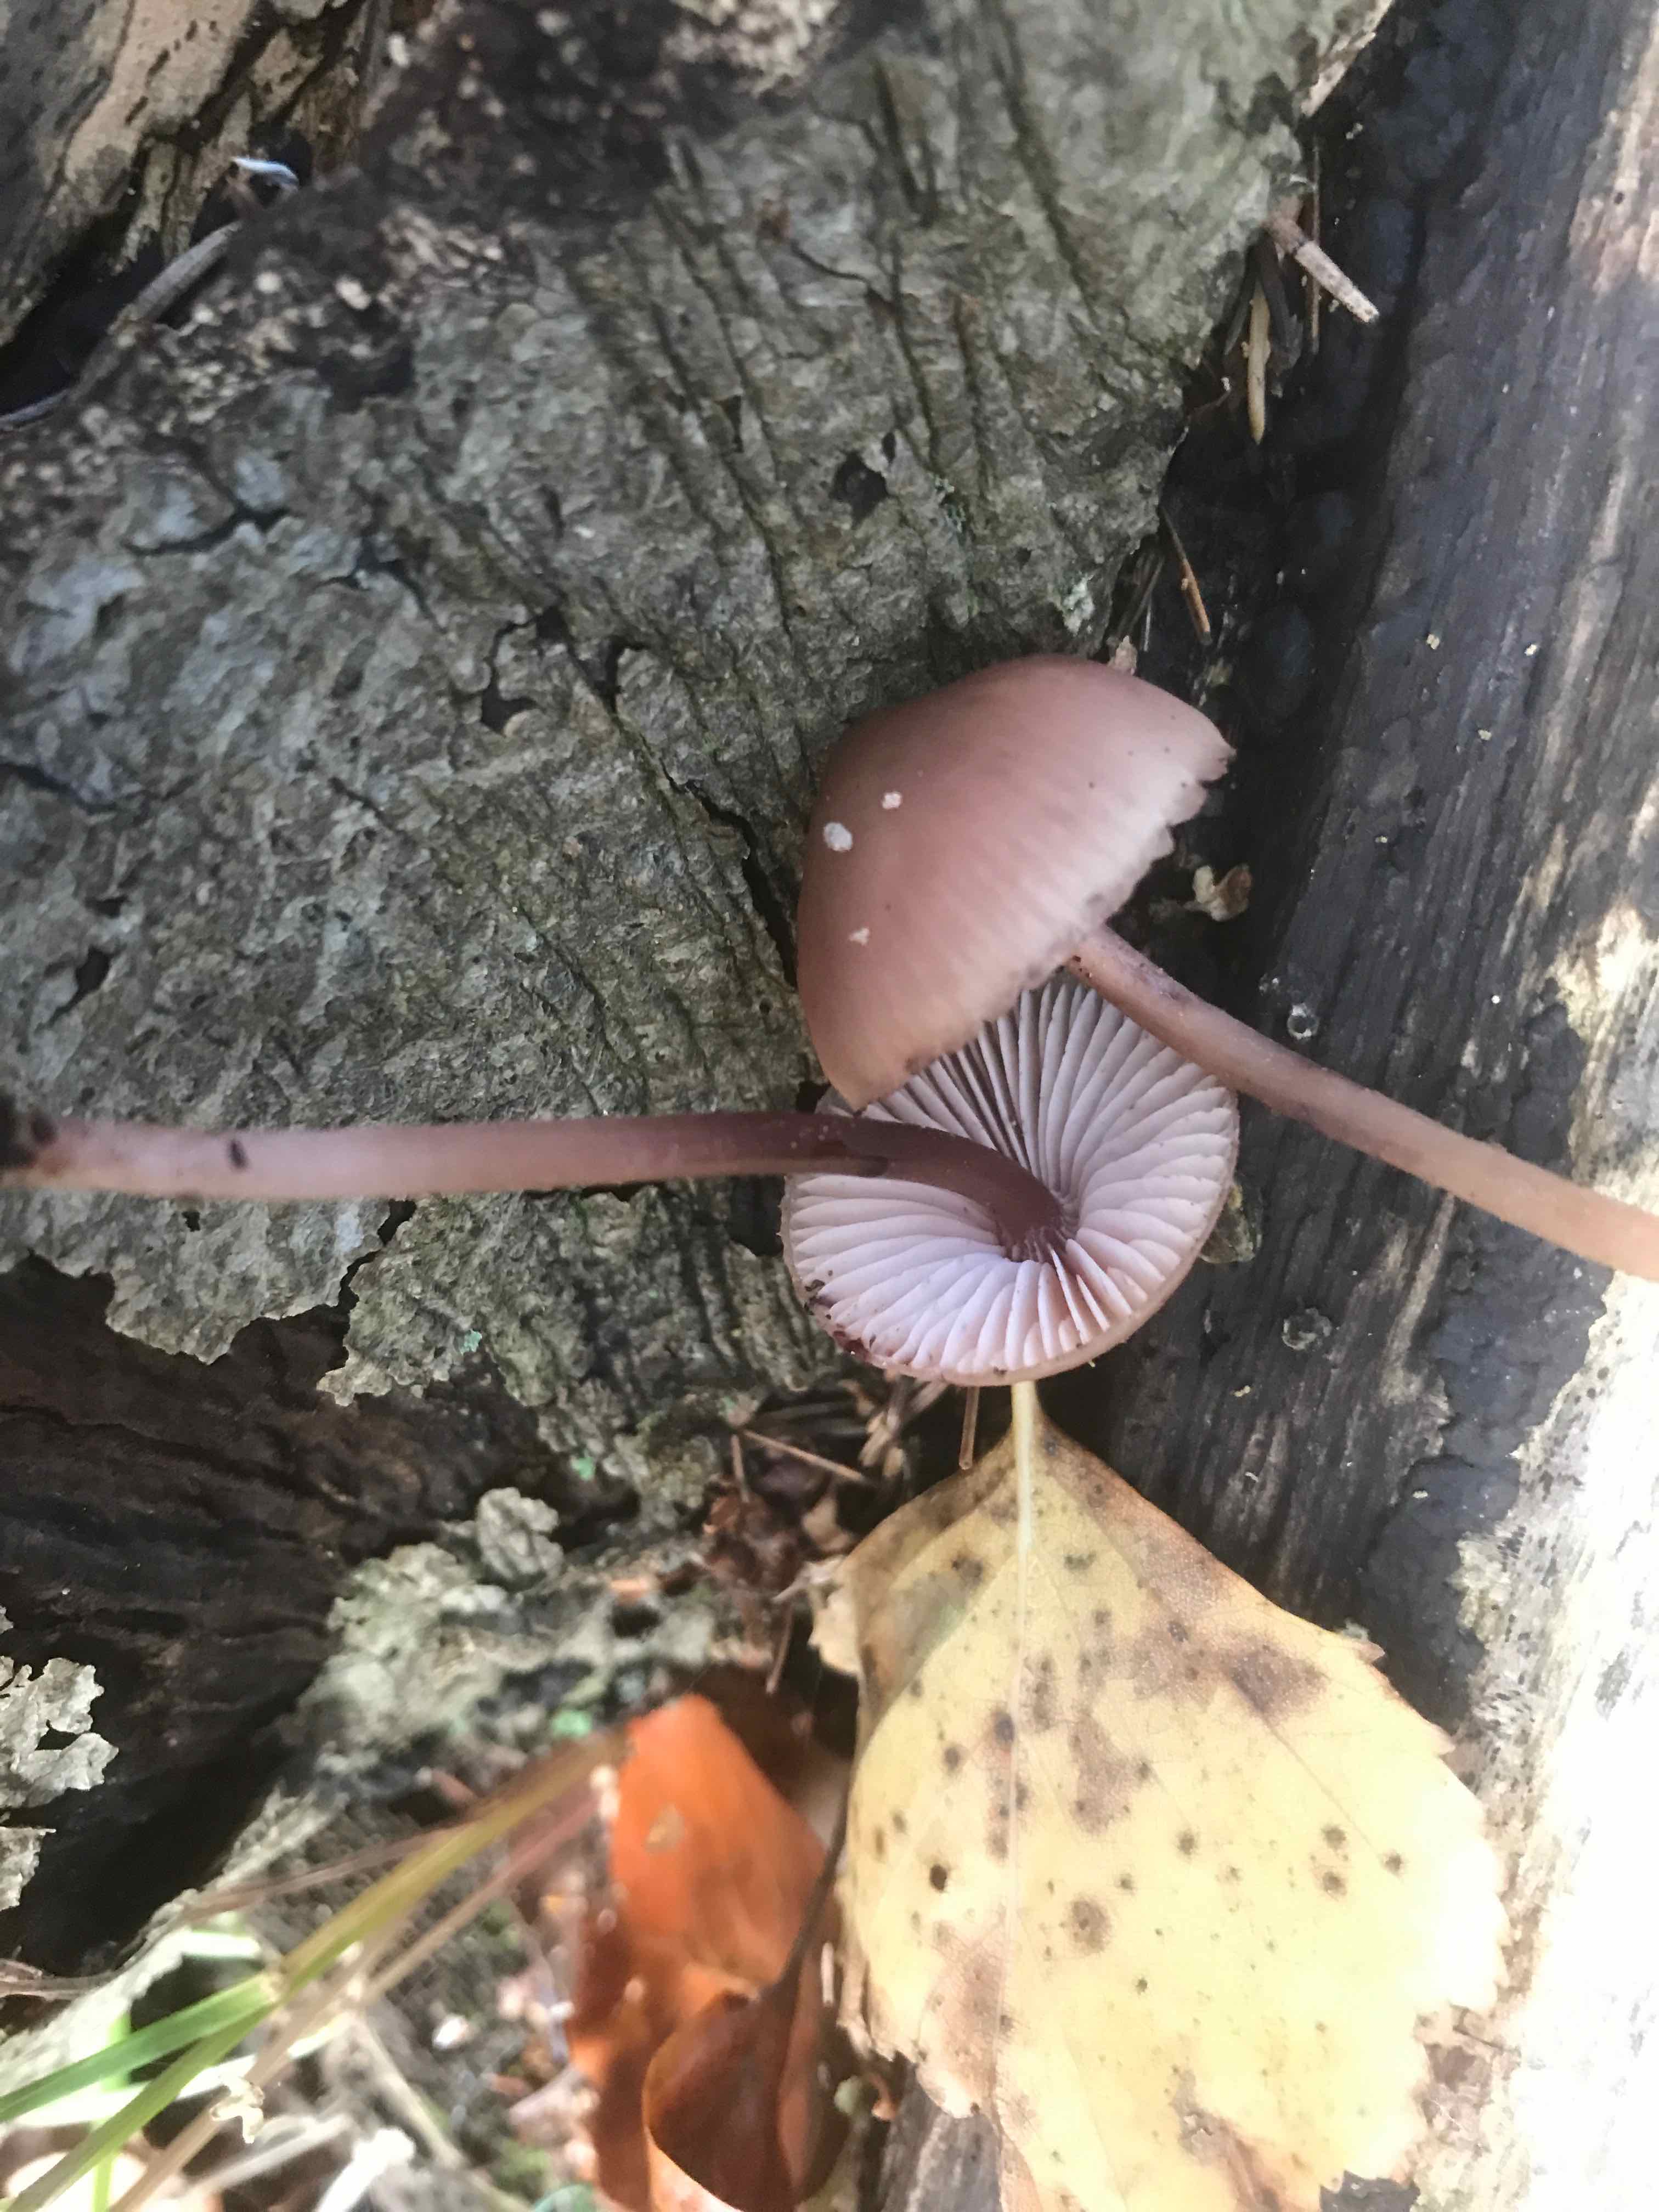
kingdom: Fungi
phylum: Basidiomycota
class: Agaricomycetes
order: Agaricales
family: Mycenaceae
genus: Mycena
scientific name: Mycena haematopus
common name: blødende huesvamp
